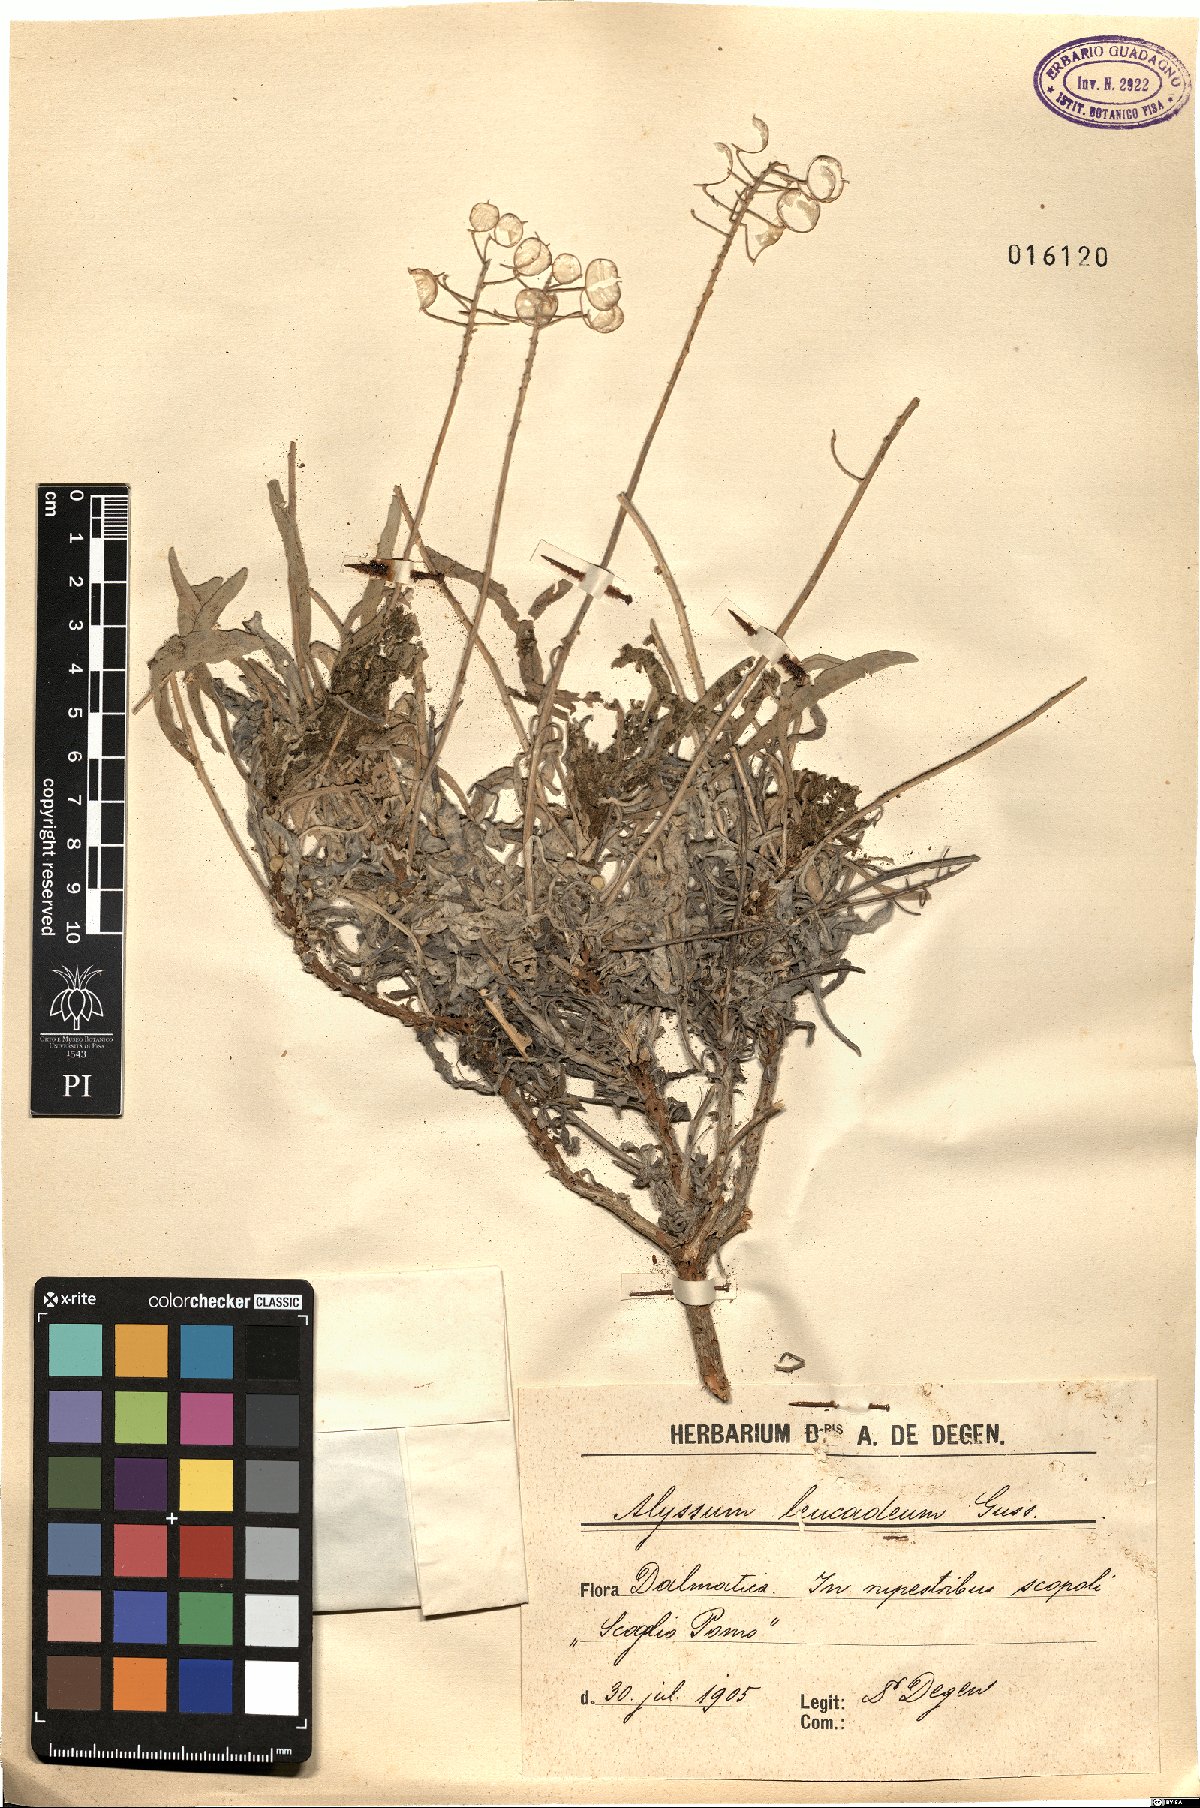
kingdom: Plantae
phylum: Tracheophyta
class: Magnoliopsida
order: Brassicales
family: Brassicaceae
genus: Aurinia
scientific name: Aurinia leucadea
